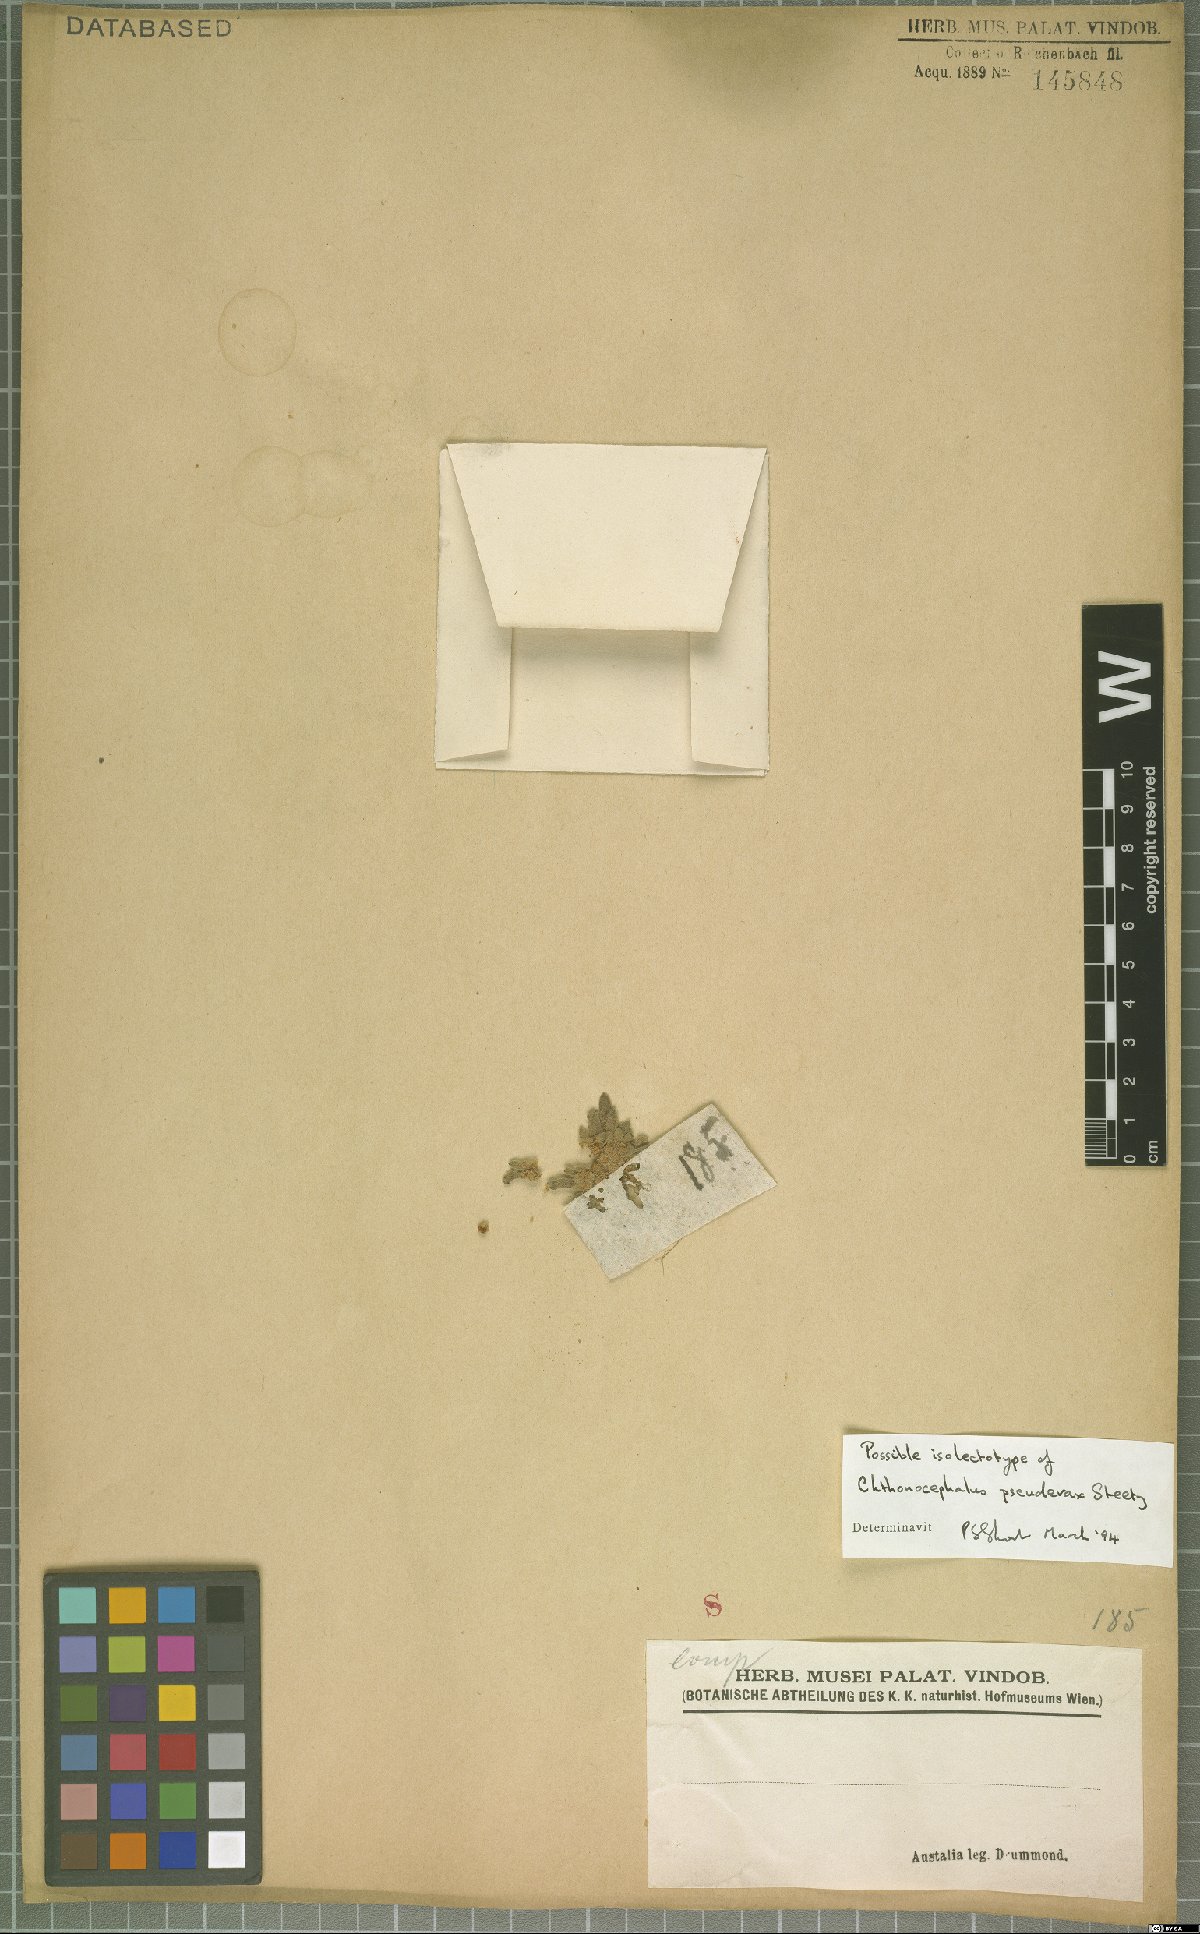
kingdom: Plantae
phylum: Tracheophyta
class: Magnoliopsida
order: Asterales
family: Asteraceae
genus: Chthonocephalus
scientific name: Chthonocephalus pseudevax
